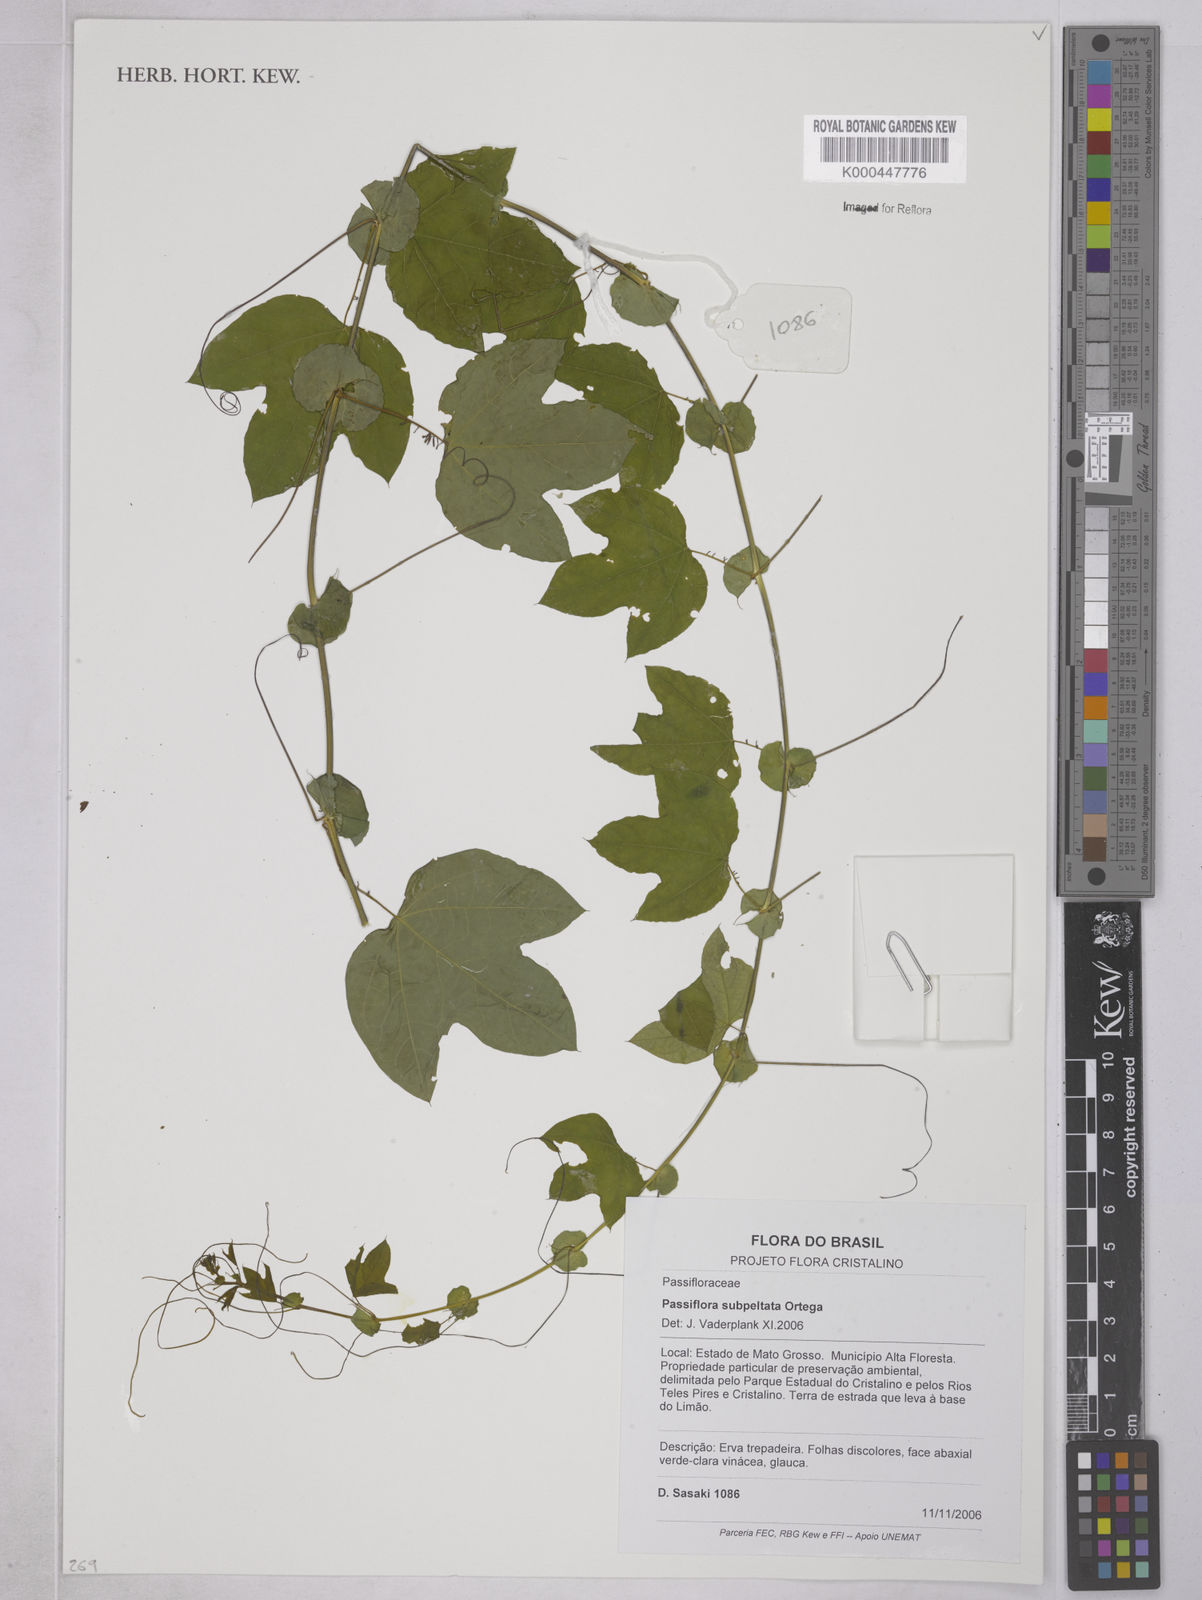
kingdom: Plantae
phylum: Tracheophyta
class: Magnoliopsida
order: Malpighiales
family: Passifloraceae
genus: Passiflora
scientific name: Passiflora subpeltata
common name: White passionflower
